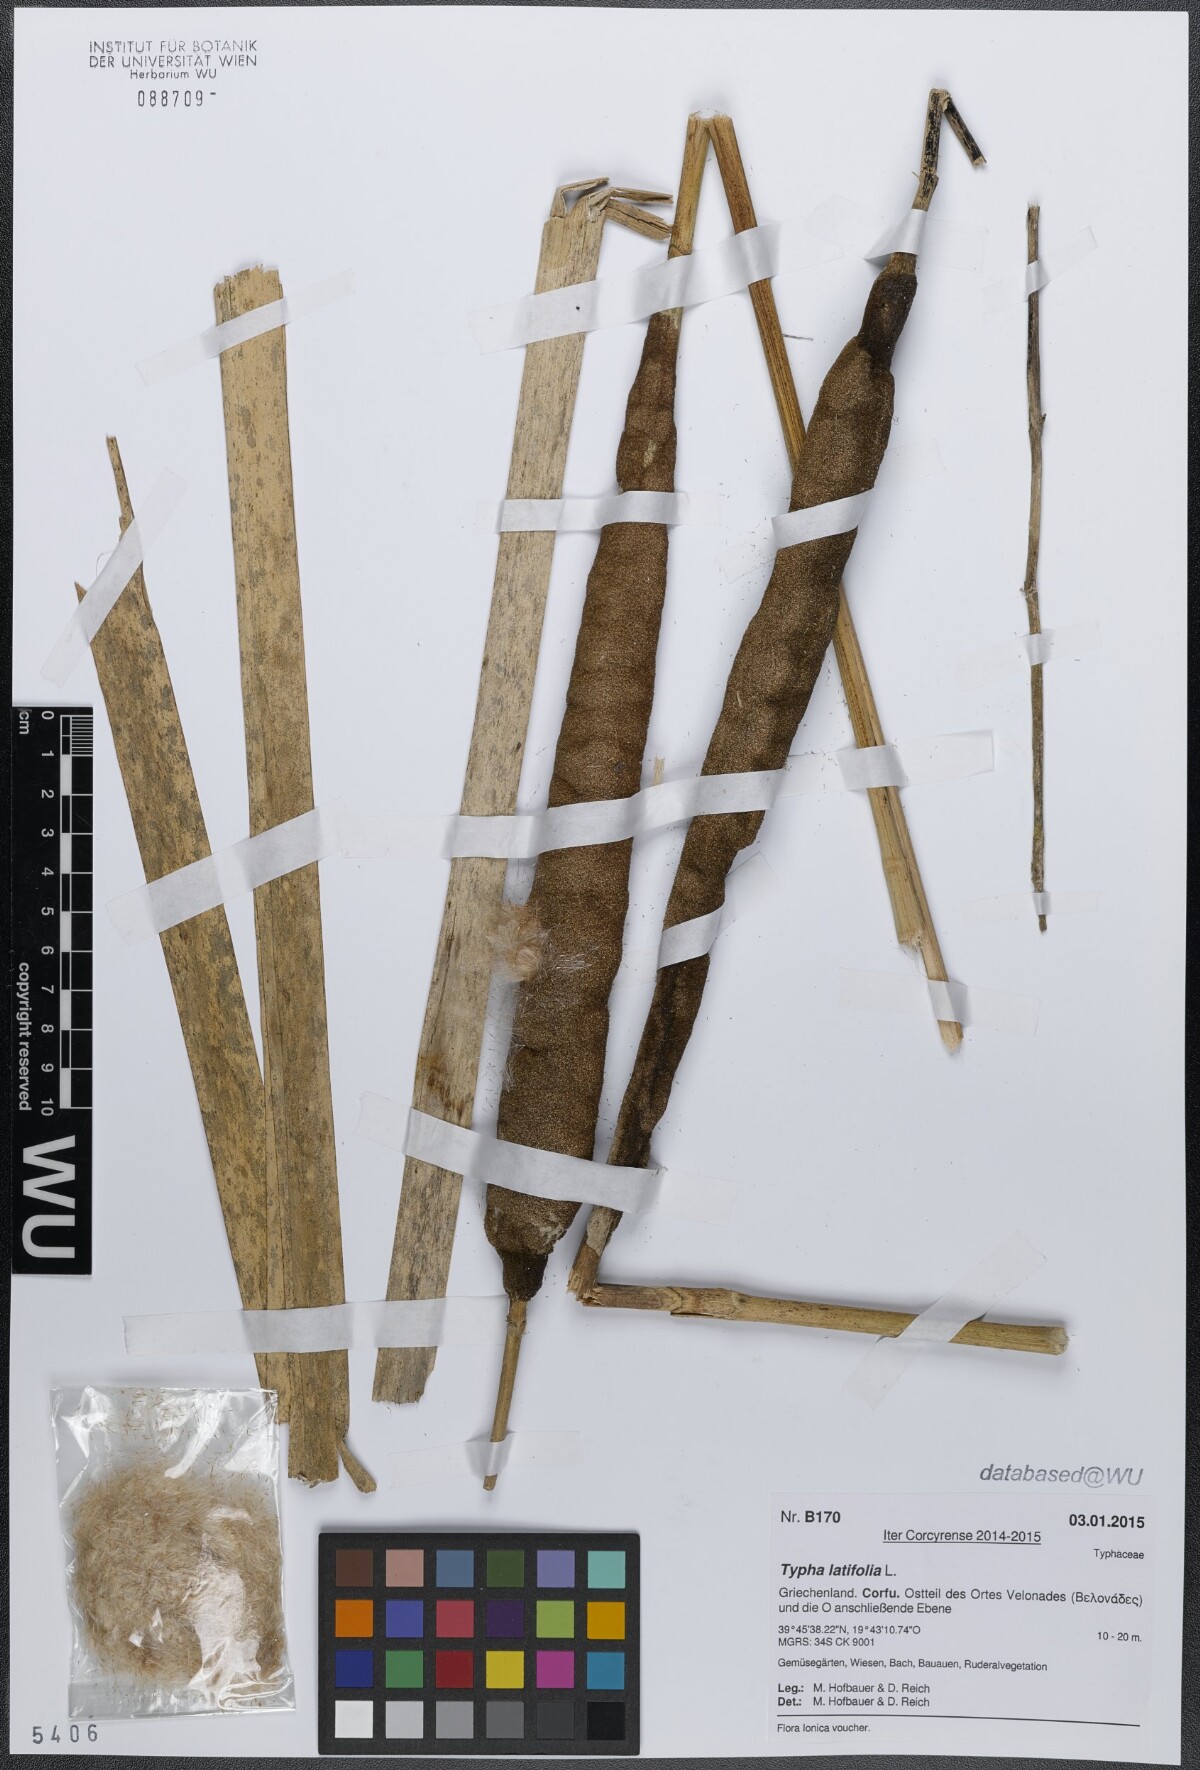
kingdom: Plantae
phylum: Tracheophyta
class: Liliopsida
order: Poales
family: Typhaceae
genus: Typha
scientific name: Typha latifolia
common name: Broadleaf cattail
